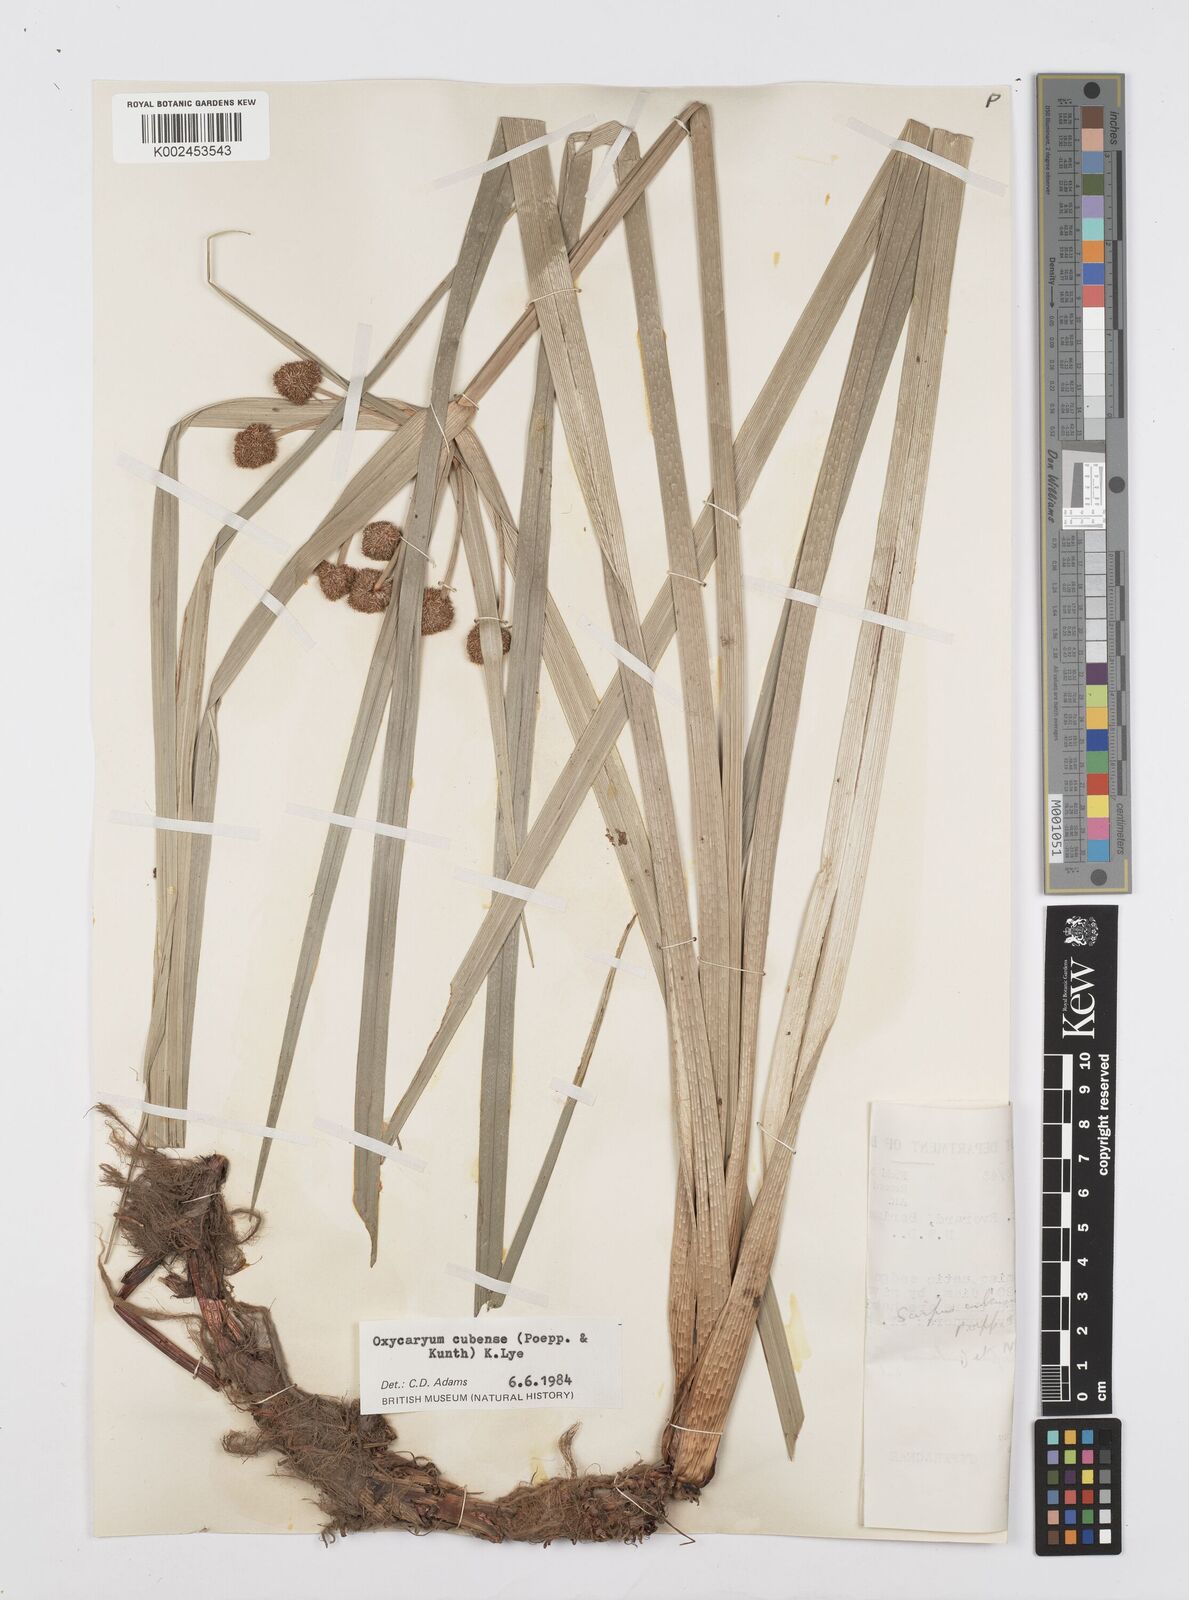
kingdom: Plantae
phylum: Tracheophyta
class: Liliopsida
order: Poales
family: Cyperaceae
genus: Cyperus
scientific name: Cyperus elegans
